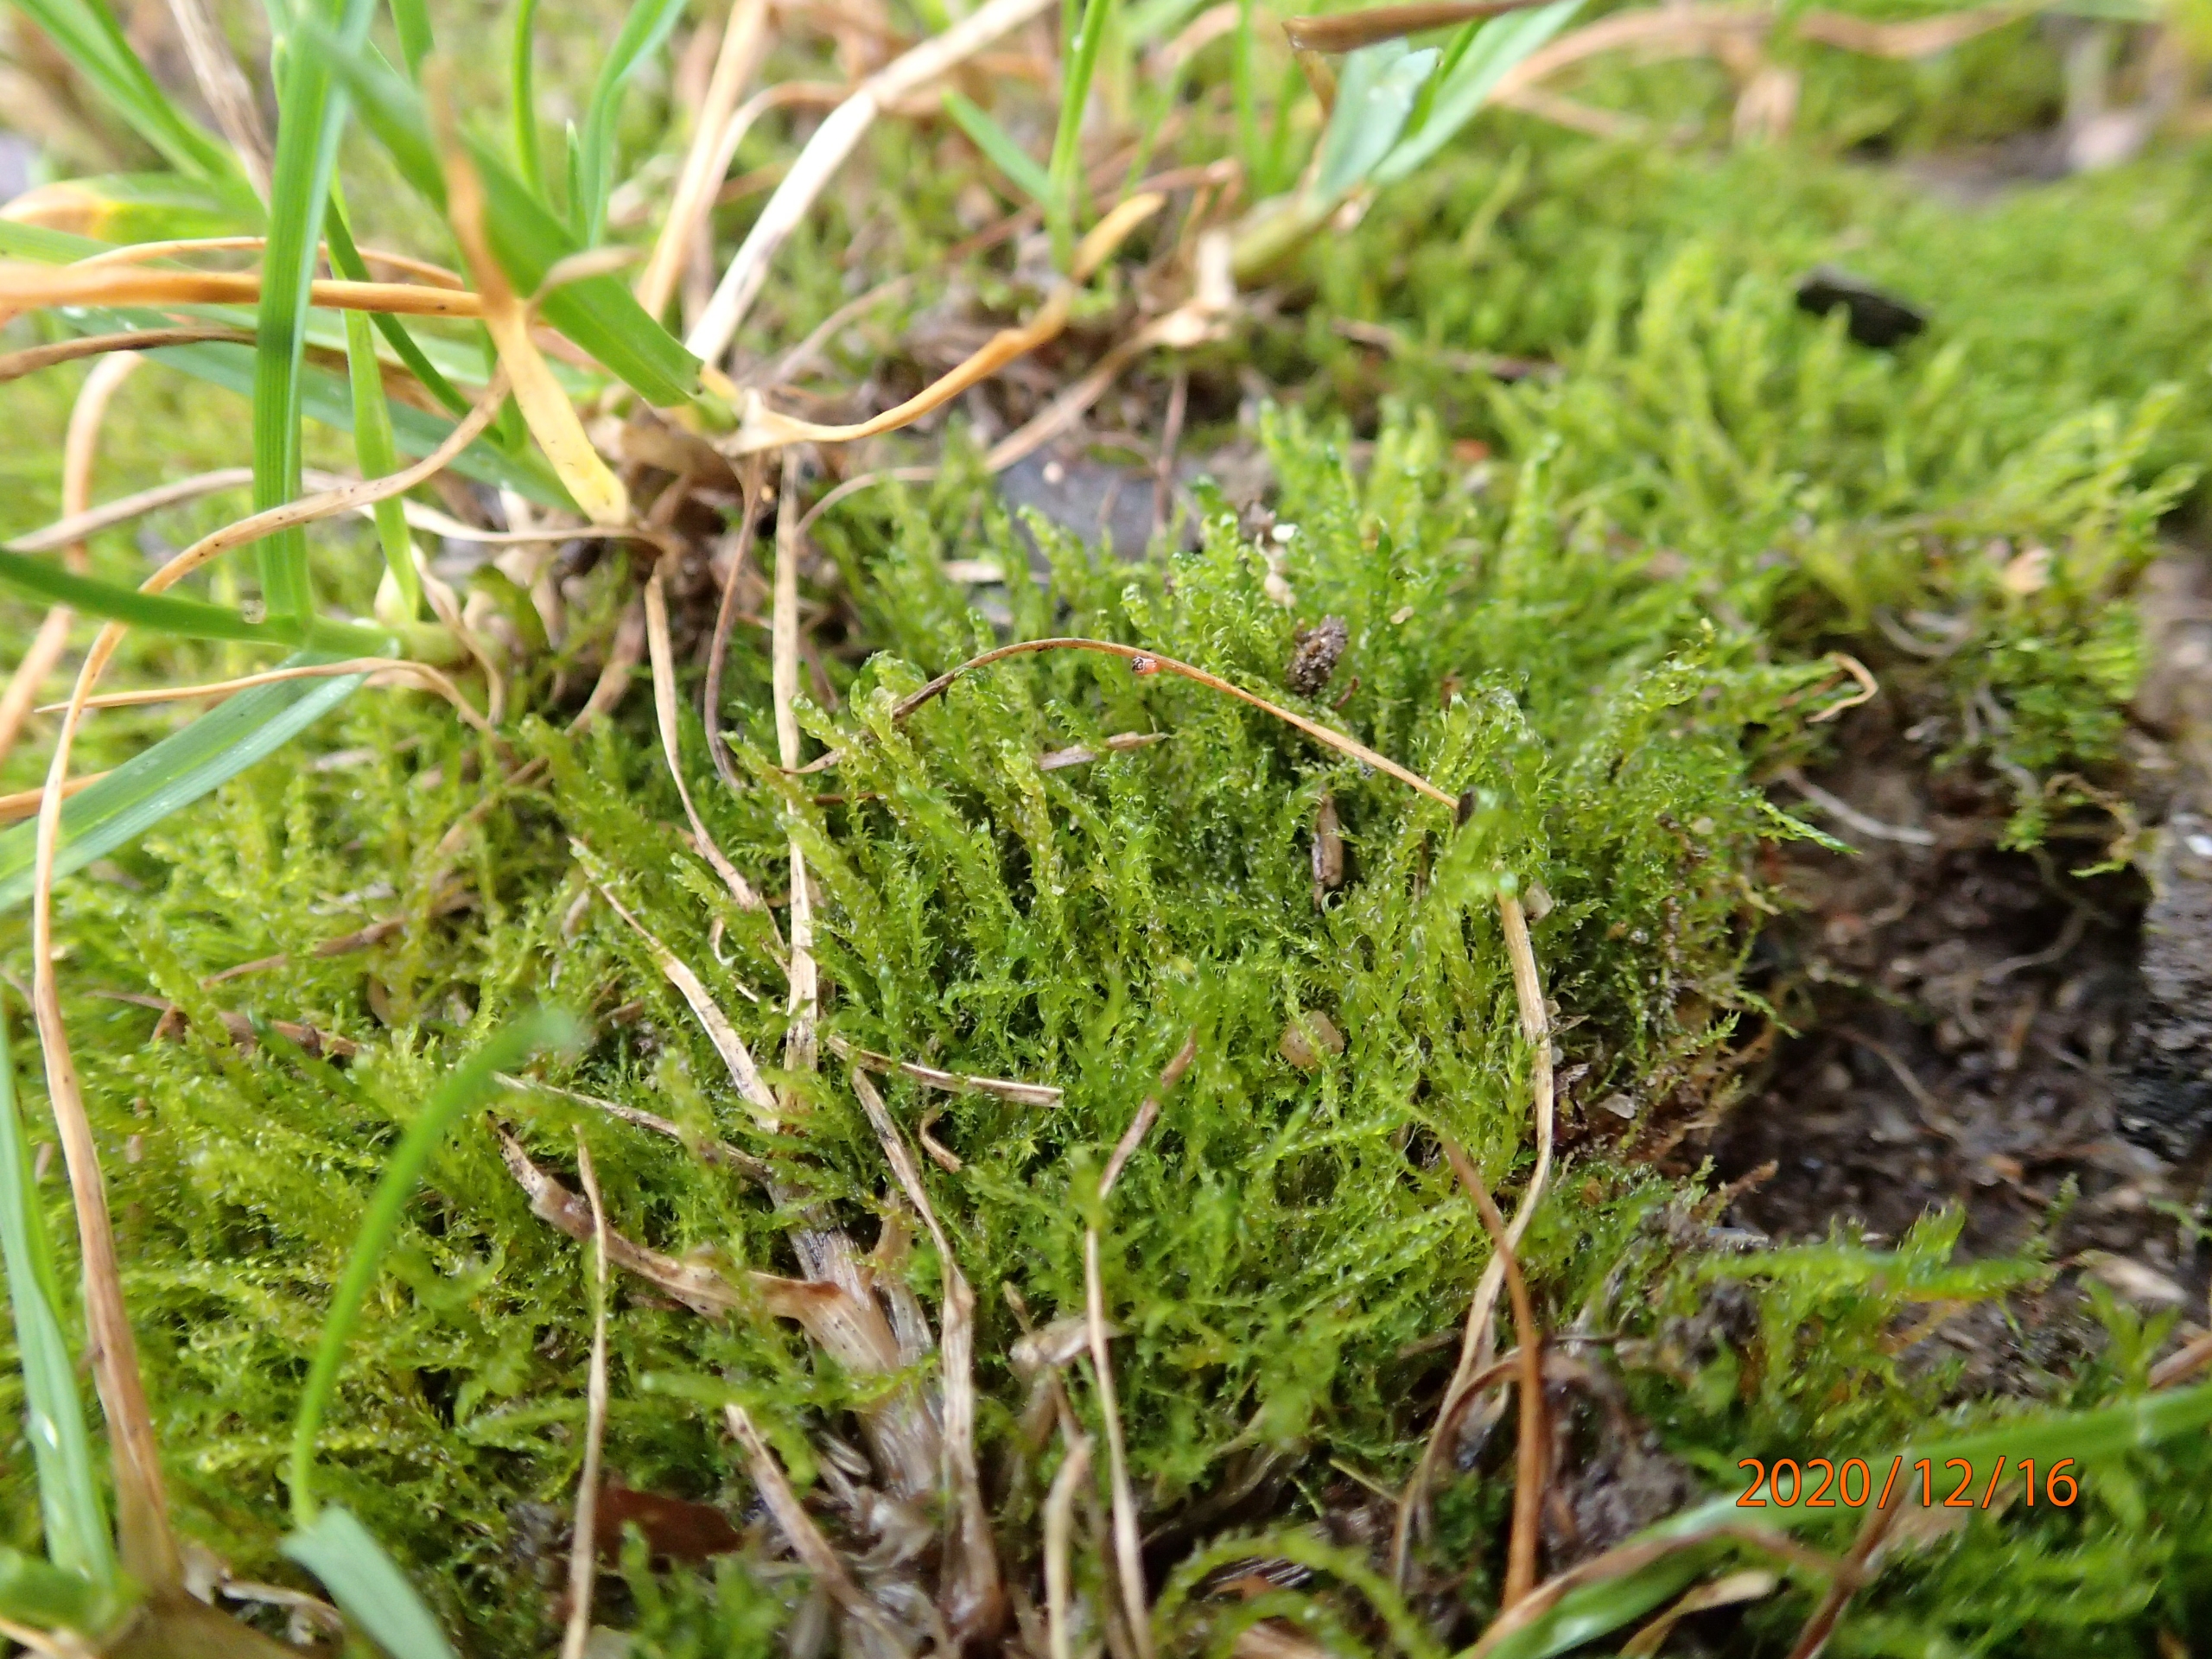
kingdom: Plantae
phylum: Bryophyta
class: Bryopsida
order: Hypnales
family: Amblystegiaceae
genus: Drepanocladus
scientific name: Drepanocladus aduncus
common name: Kær-seglmos
